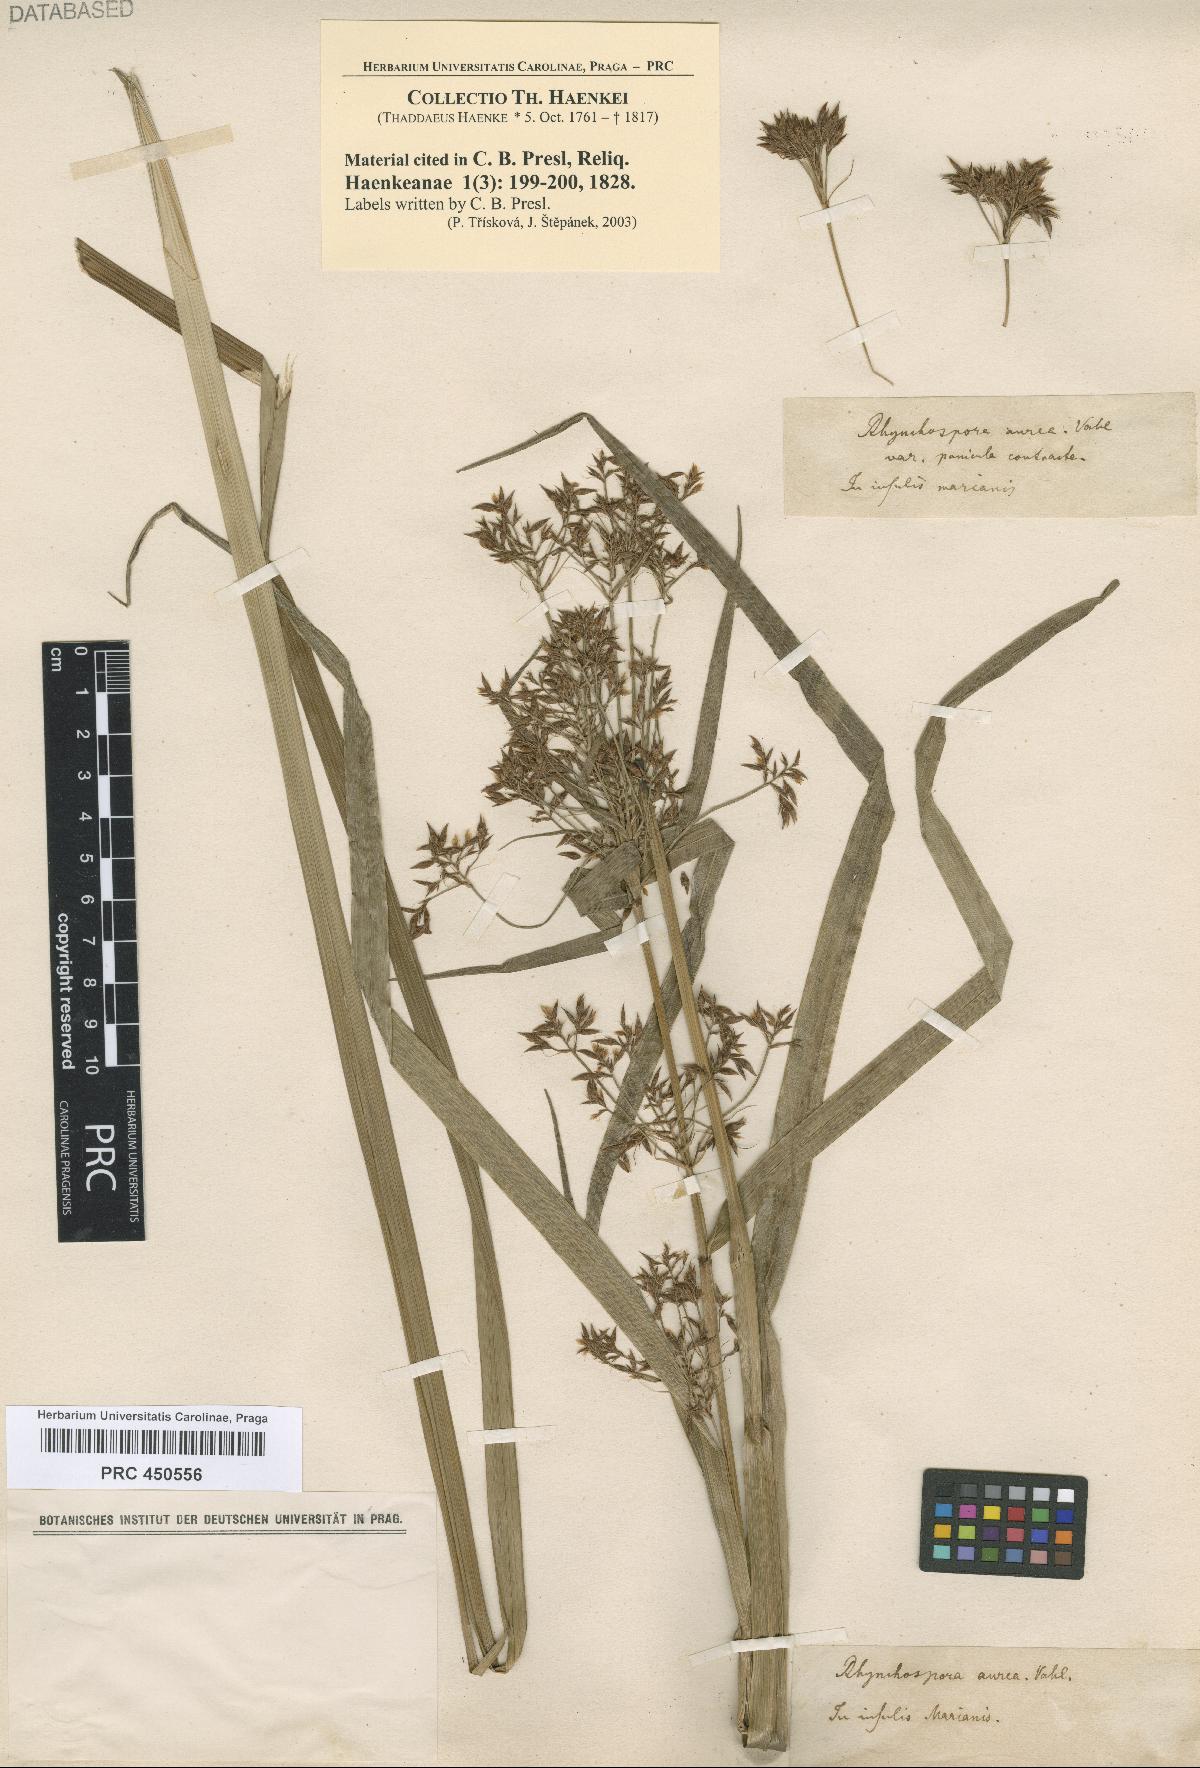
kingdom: Plantae
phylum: Tracheophyta
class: Liliopsida
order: Poales
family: Cyperaceae
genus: Rhynchospora
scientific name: Rhynchospora
